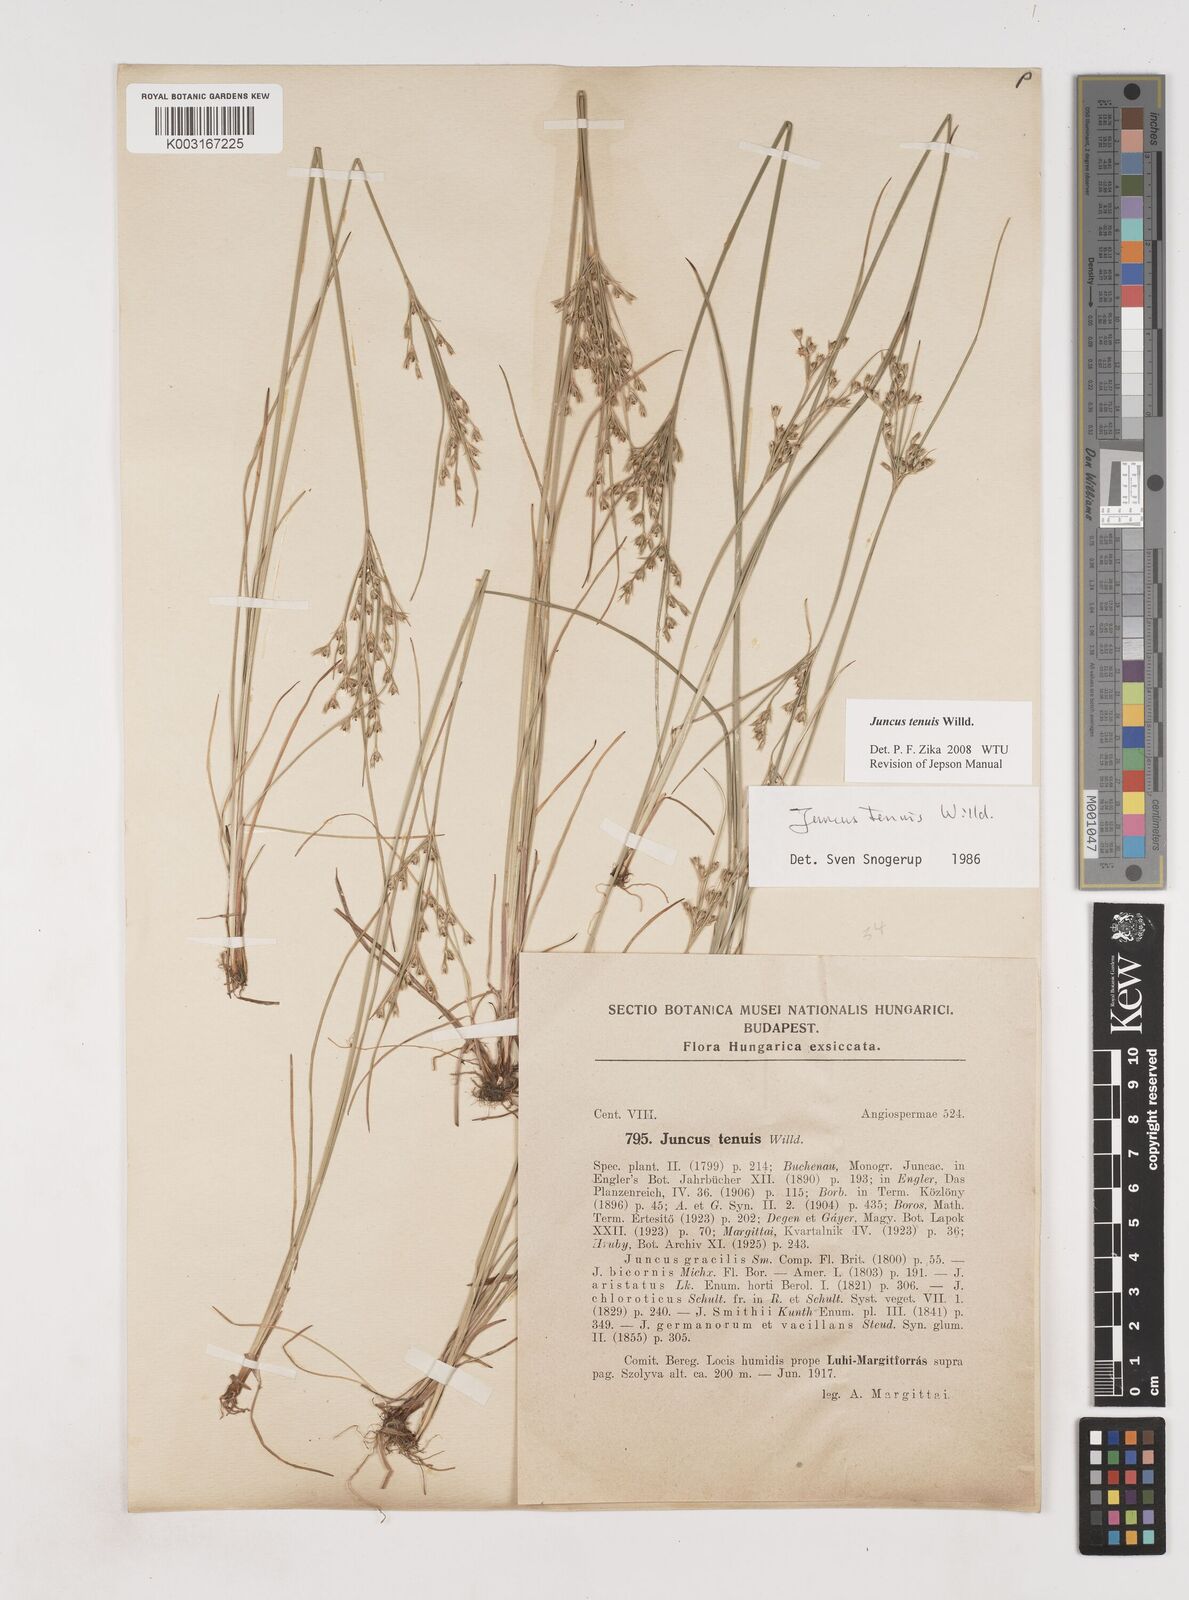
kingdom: Plantae
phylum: Tracheophyta
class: Liliopsida
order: Poales
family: Juncaceae
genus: Juncus
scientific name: Juncus tenuis
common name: Slender rush
